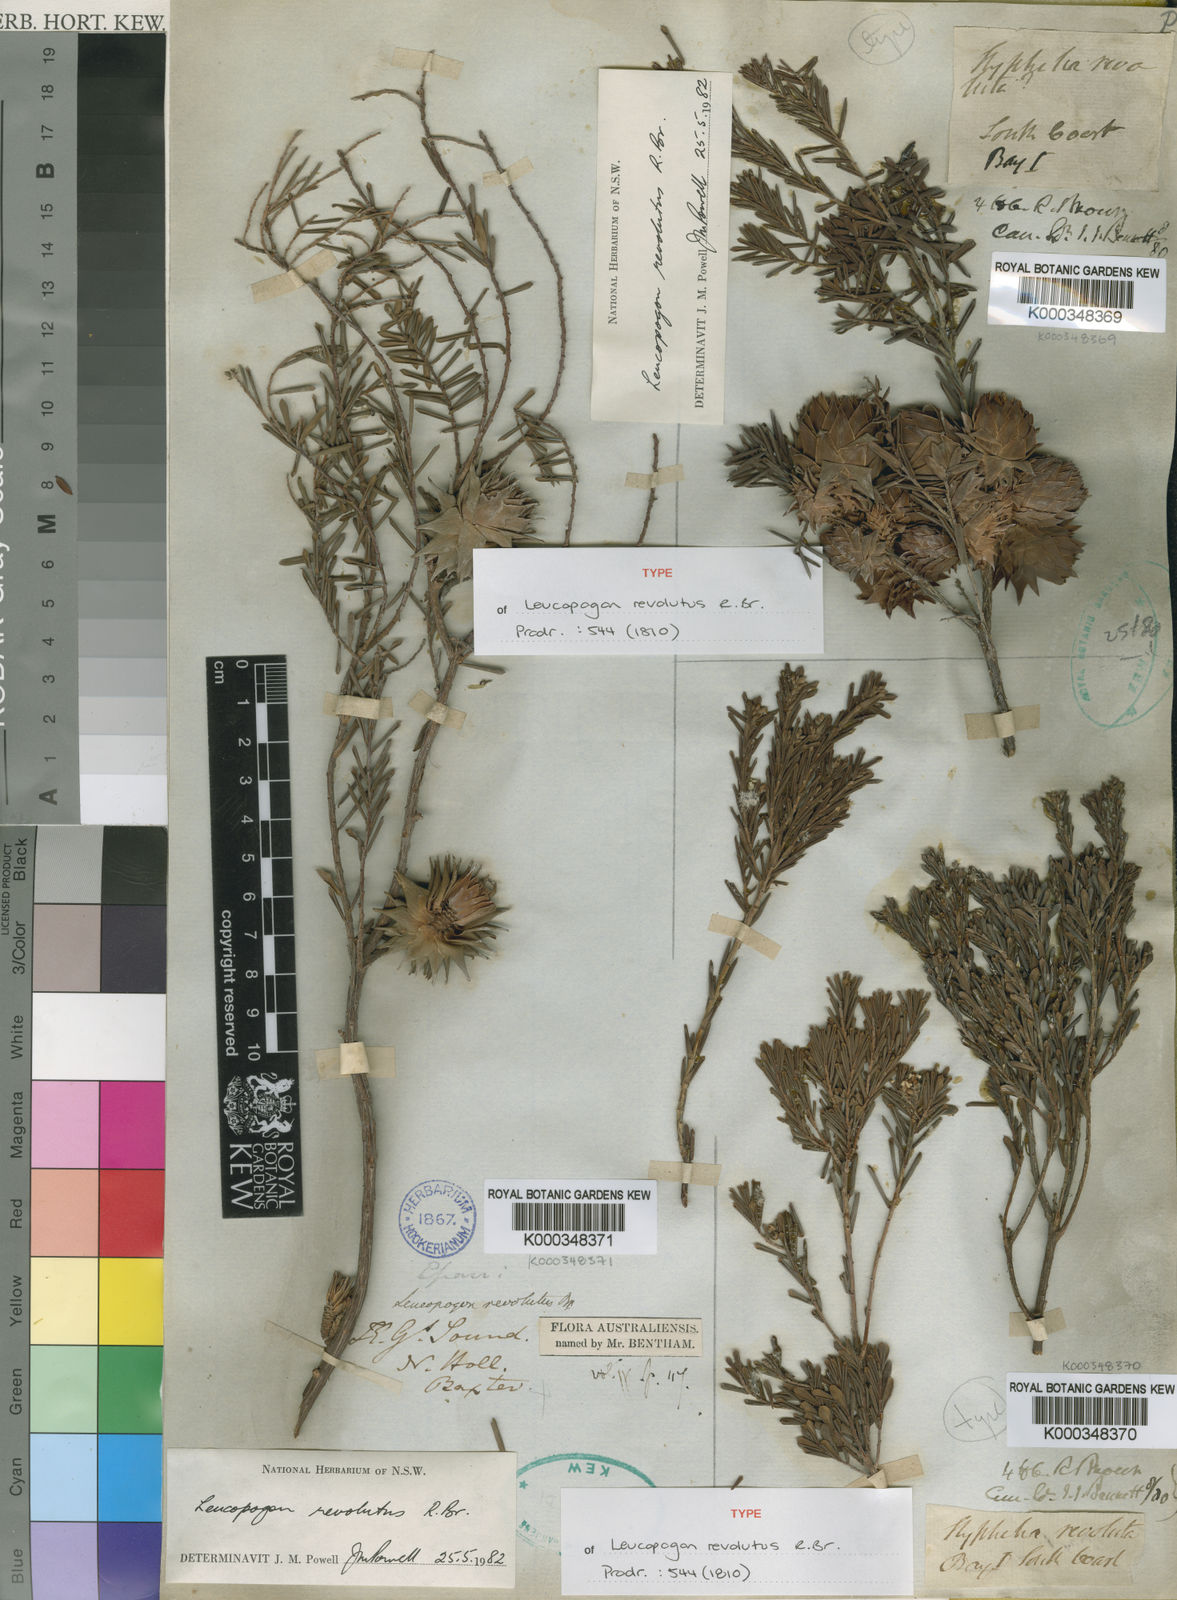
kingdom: Plantae
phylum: Tracheophyta
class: Magnoliopsida
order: Ericales
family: Ericaceae
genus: Leucopogon
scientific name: Leucopogon obovatus
